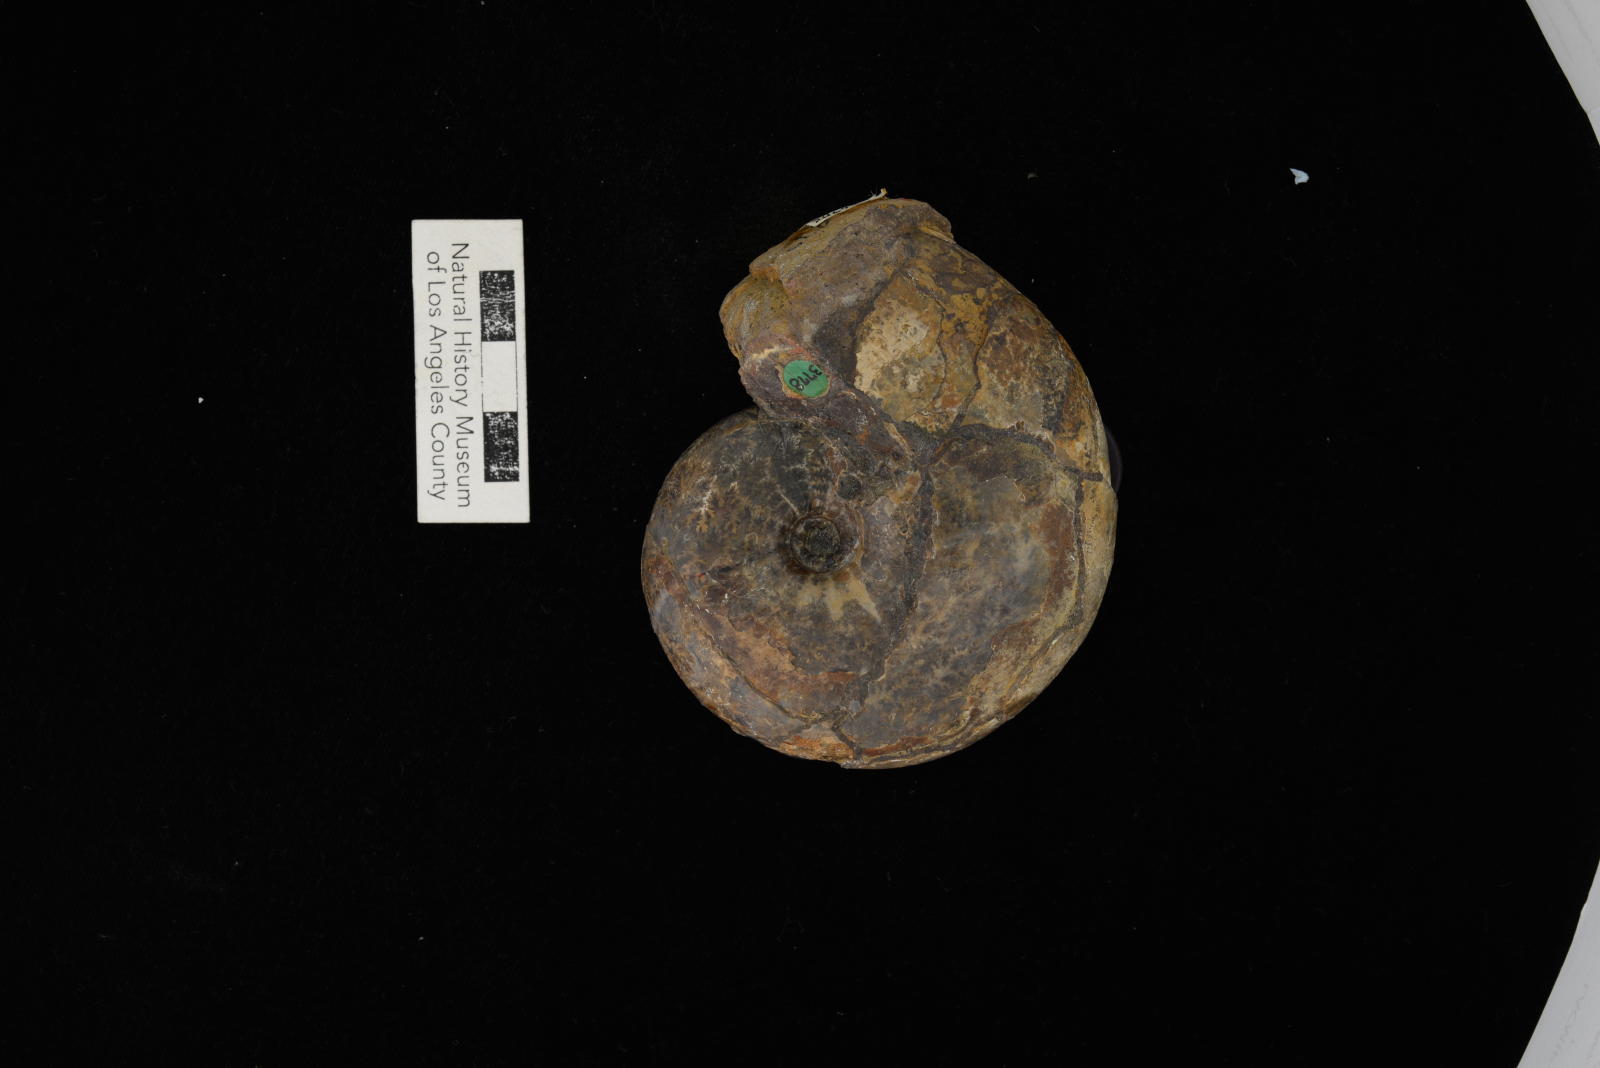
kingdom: Animalia
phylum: Mollusca
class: Cephalopoda
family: Desmoceratidae
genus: Beudanticeras
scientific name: Beudanticeras argonauticum
